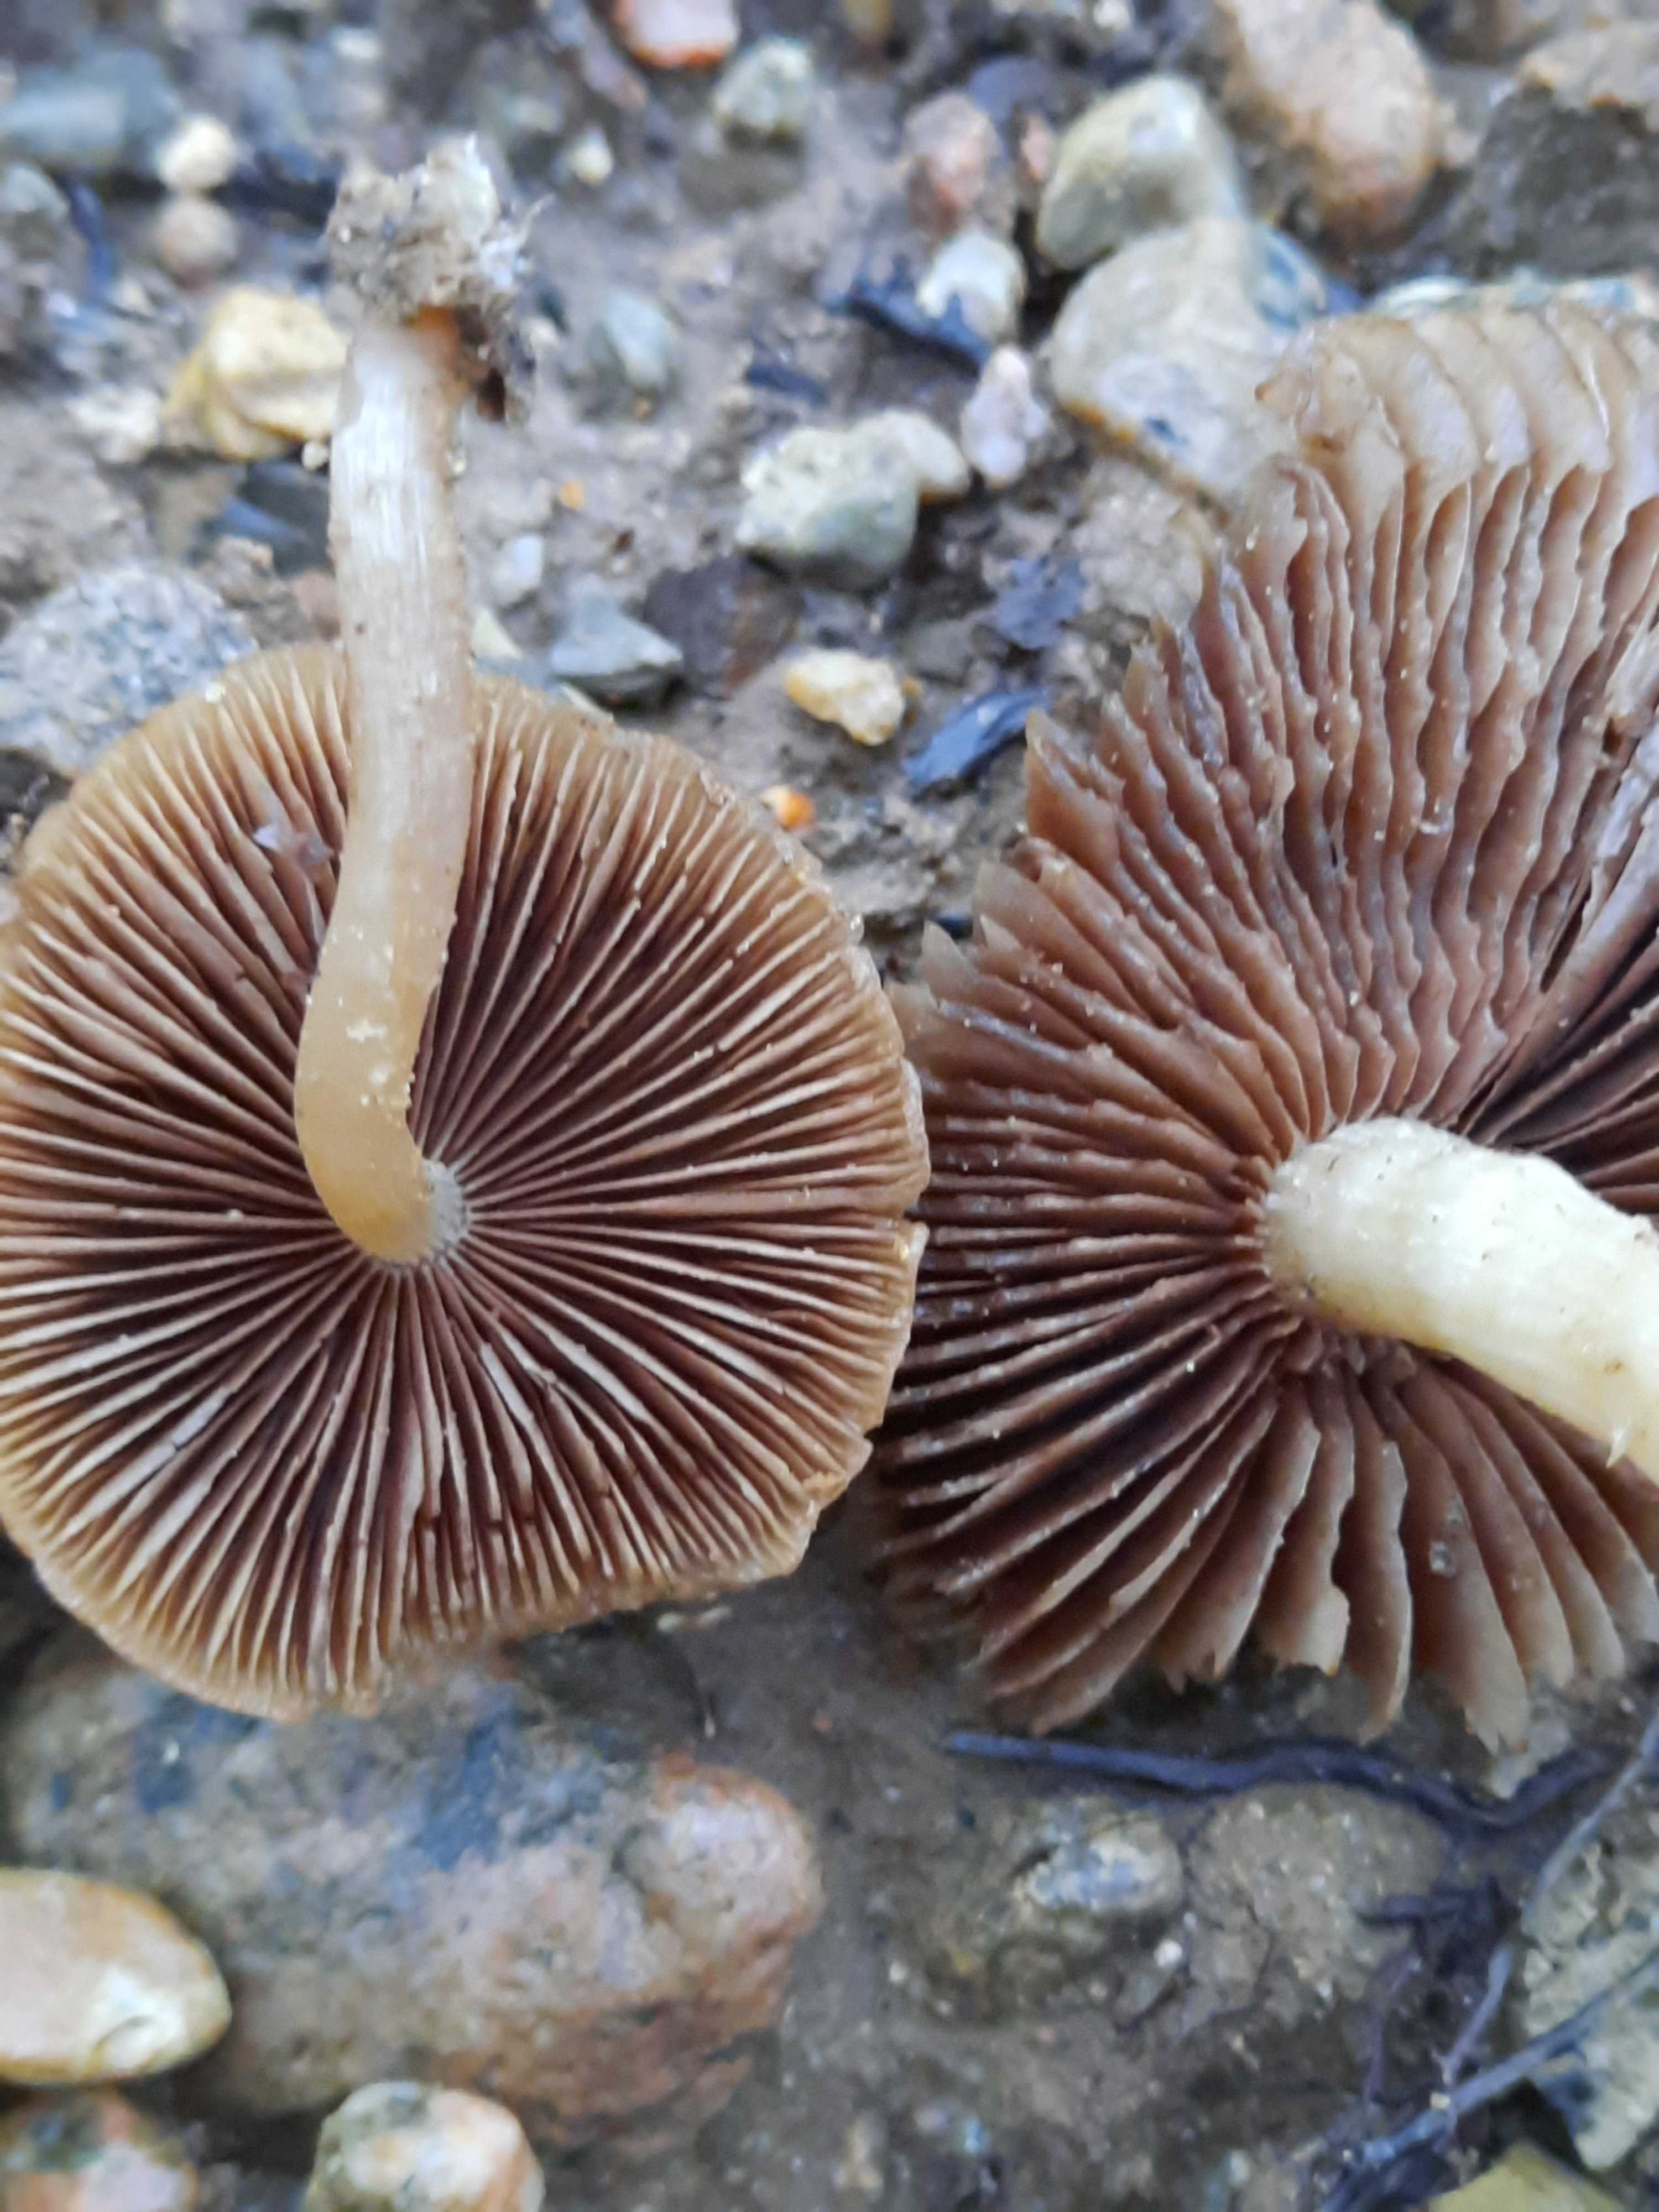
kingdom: Fungi
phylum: Basidiomycota
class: Agaricomycetes
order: Agaricales
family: Psathyrellaceae
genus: Psathyrella
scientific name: Psathyrella
